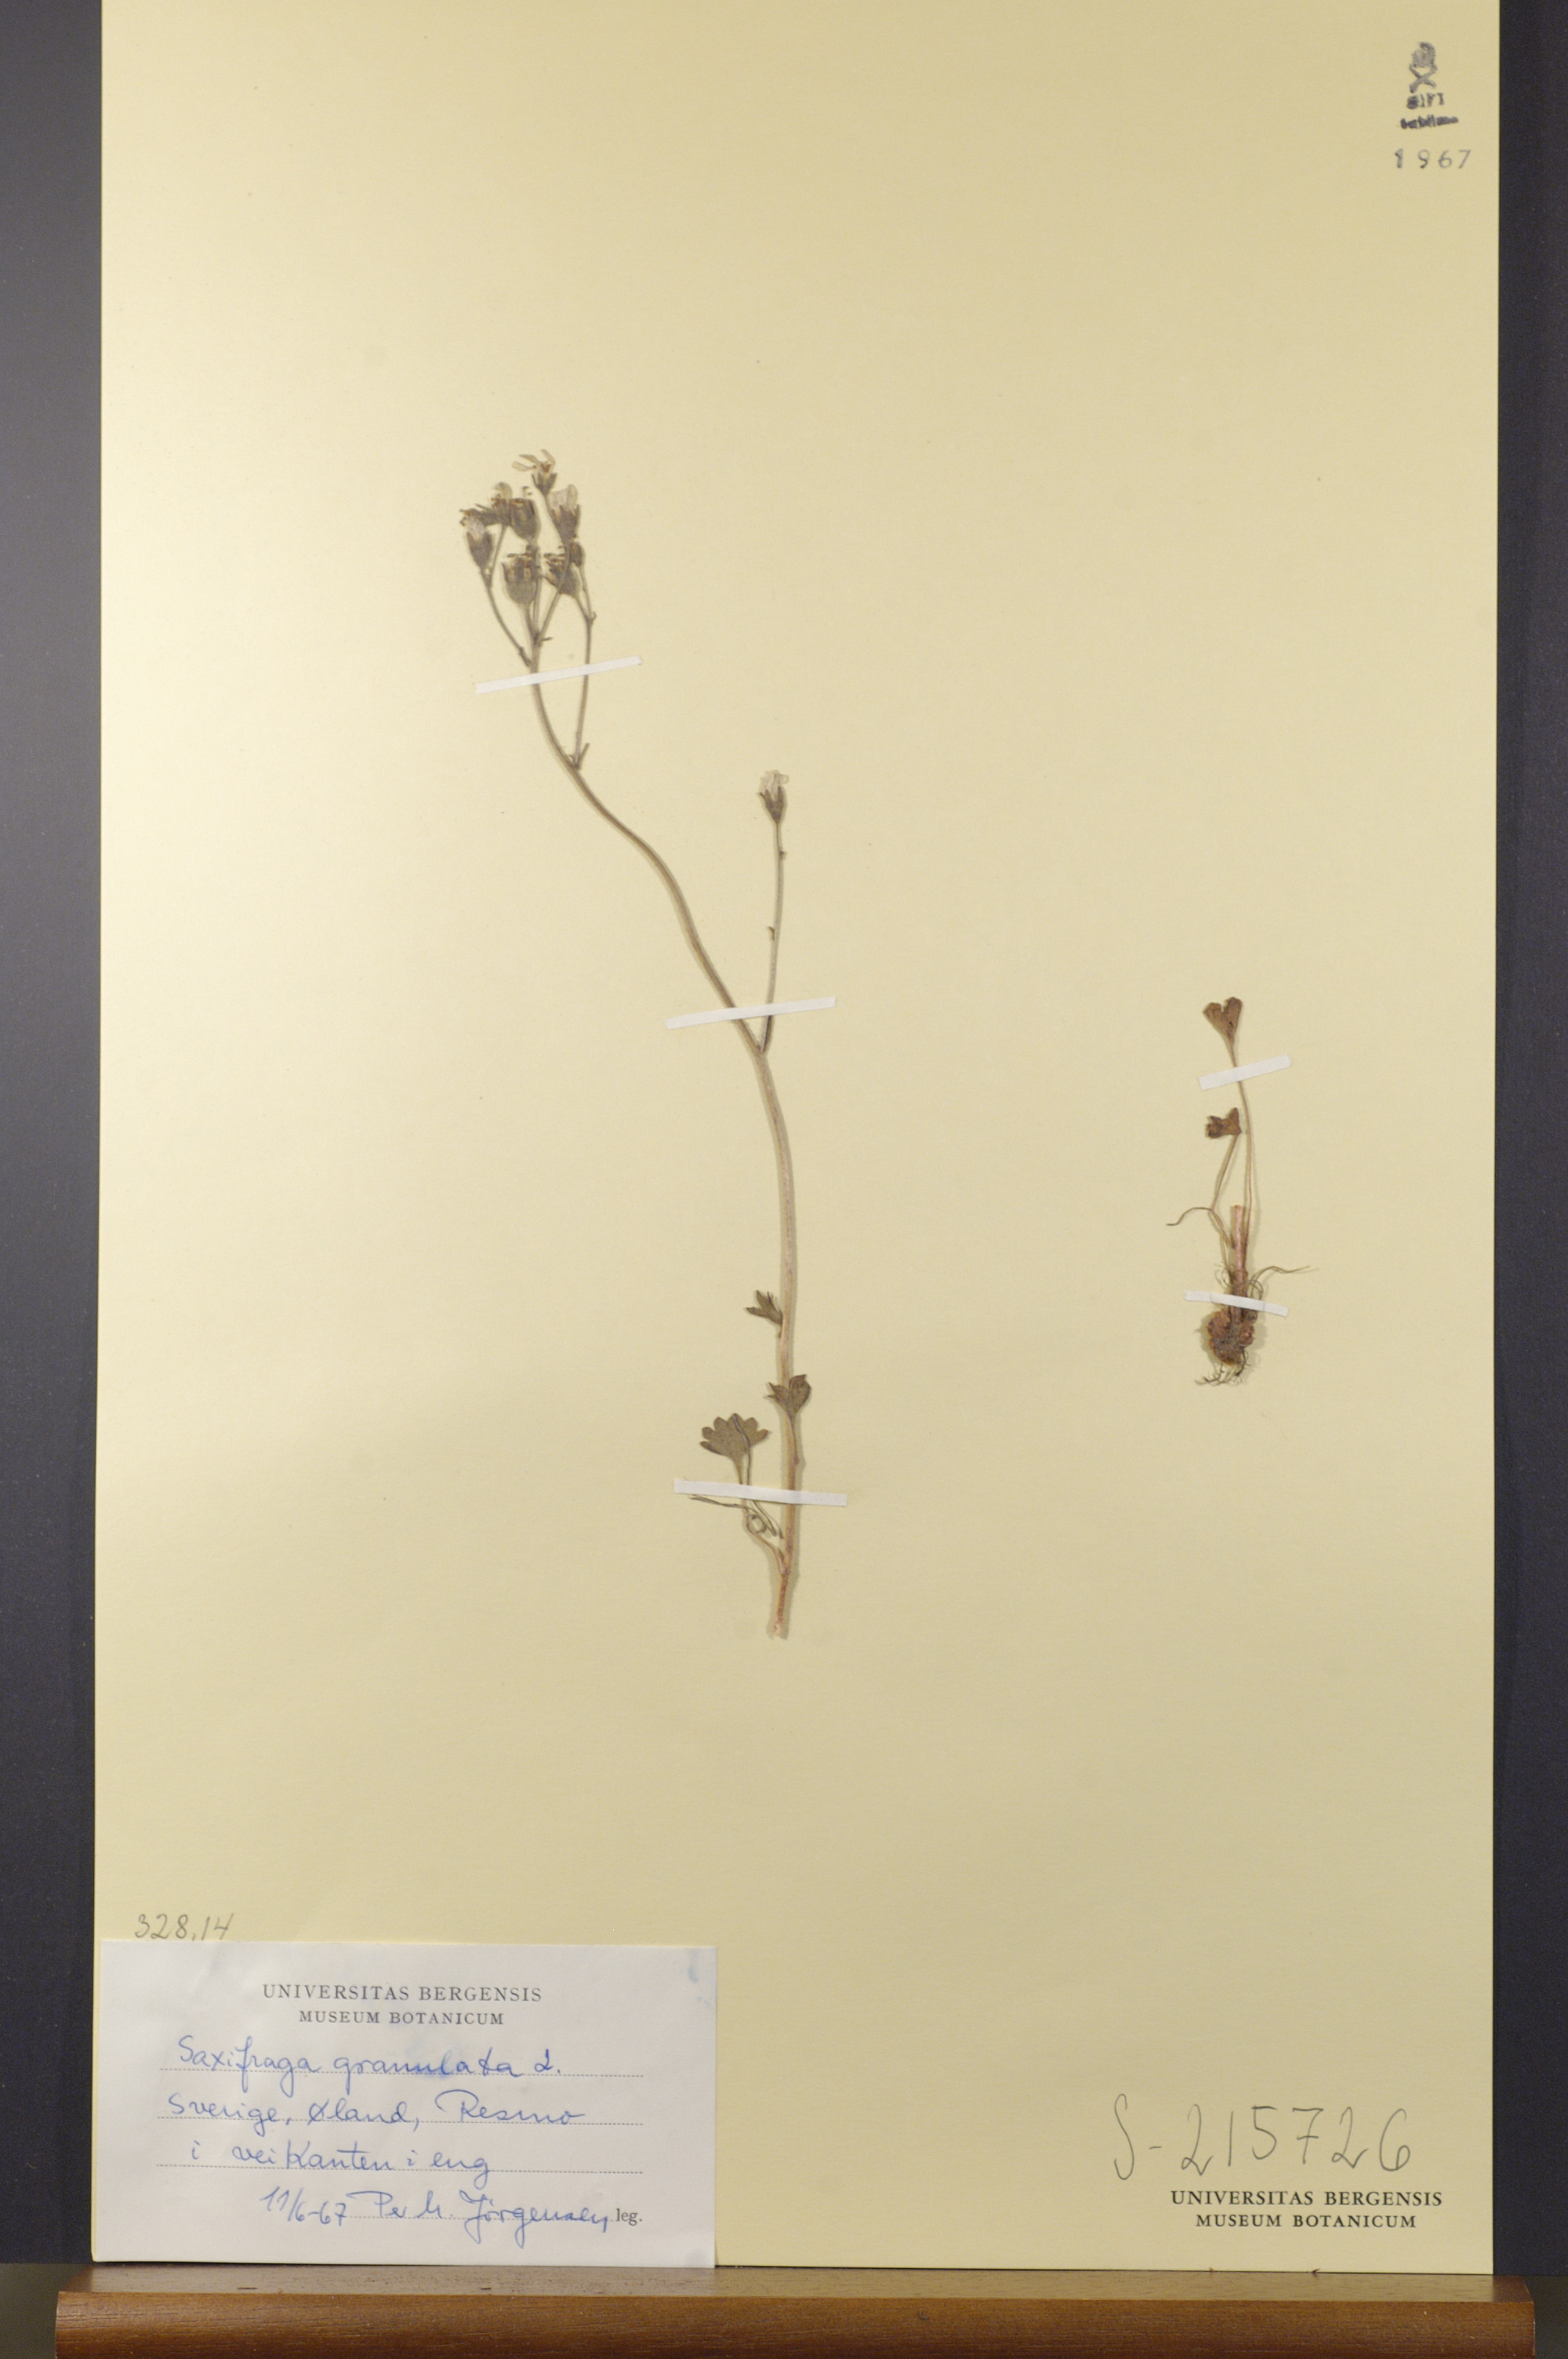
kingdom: Plantae
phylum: Tracheophyta
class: Magnoliopsida
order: Saxifragales
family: Saxifragaceae
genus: Saxifraga
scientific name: Saxifraga granulata
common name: Meadow saxifrage
